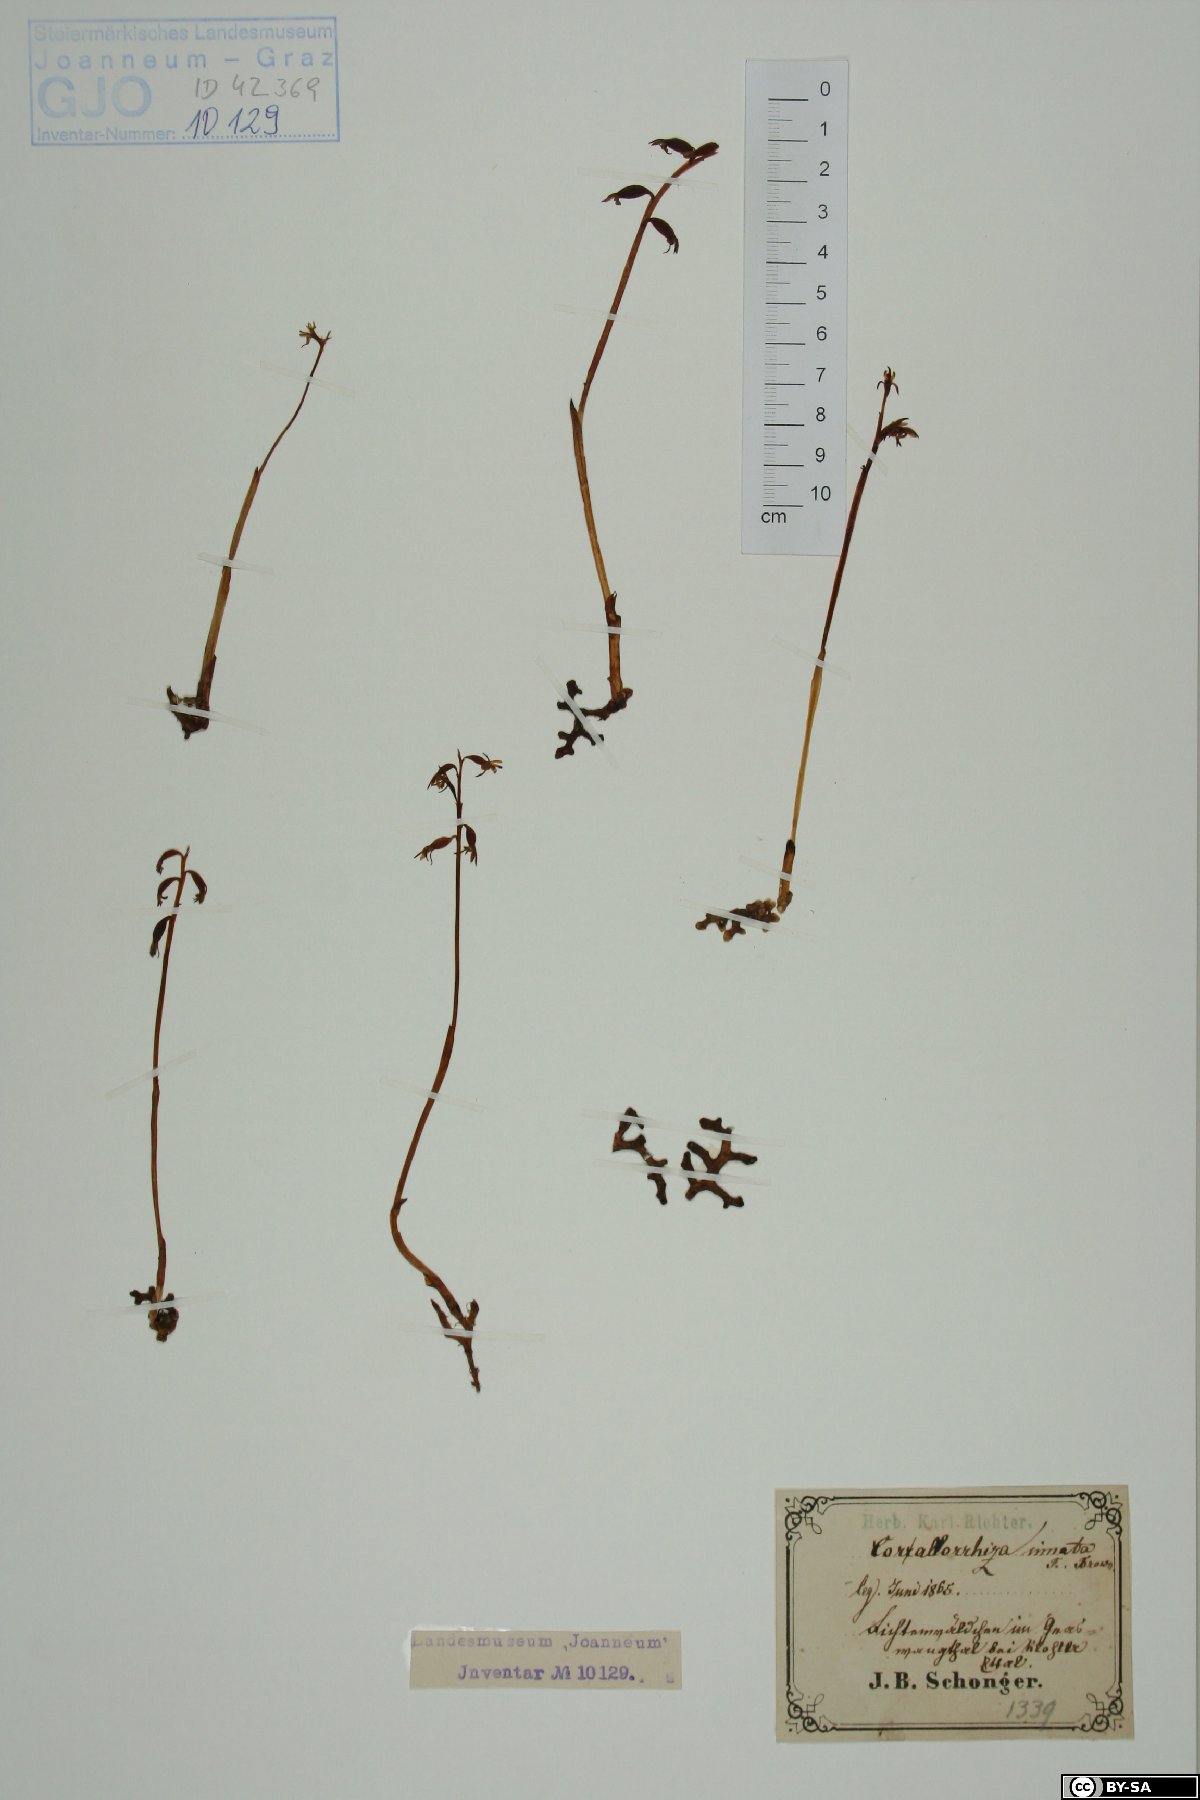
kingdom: Plantae
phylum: Tracheophyta
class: Liliopsida
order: Asparagales
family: Orchidaceae
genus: Corallorhiza
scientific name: Corallorhiza trifida
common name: Yellow coralroot
